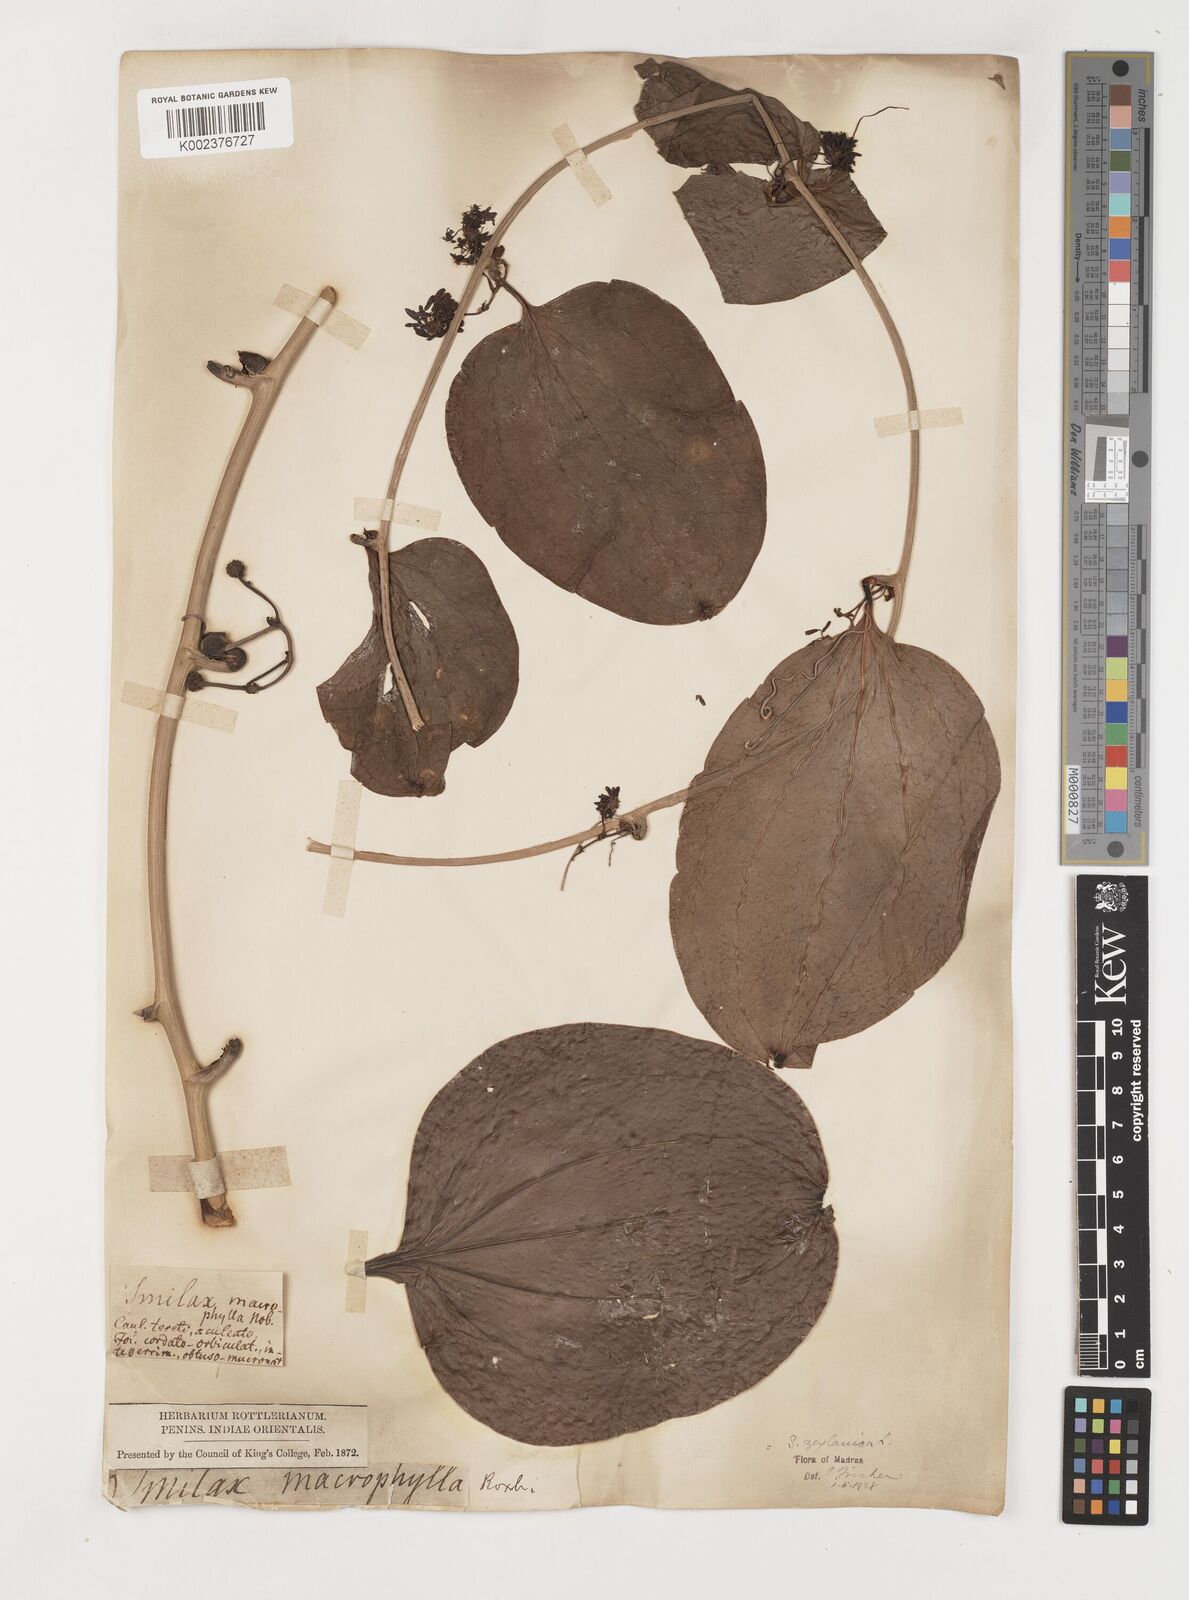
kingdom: Plantae
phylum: Tracheophyta
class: Liliopsida
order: Liliales
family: Smilacaceae
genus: Smilax
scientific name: Smilax zeylanica
